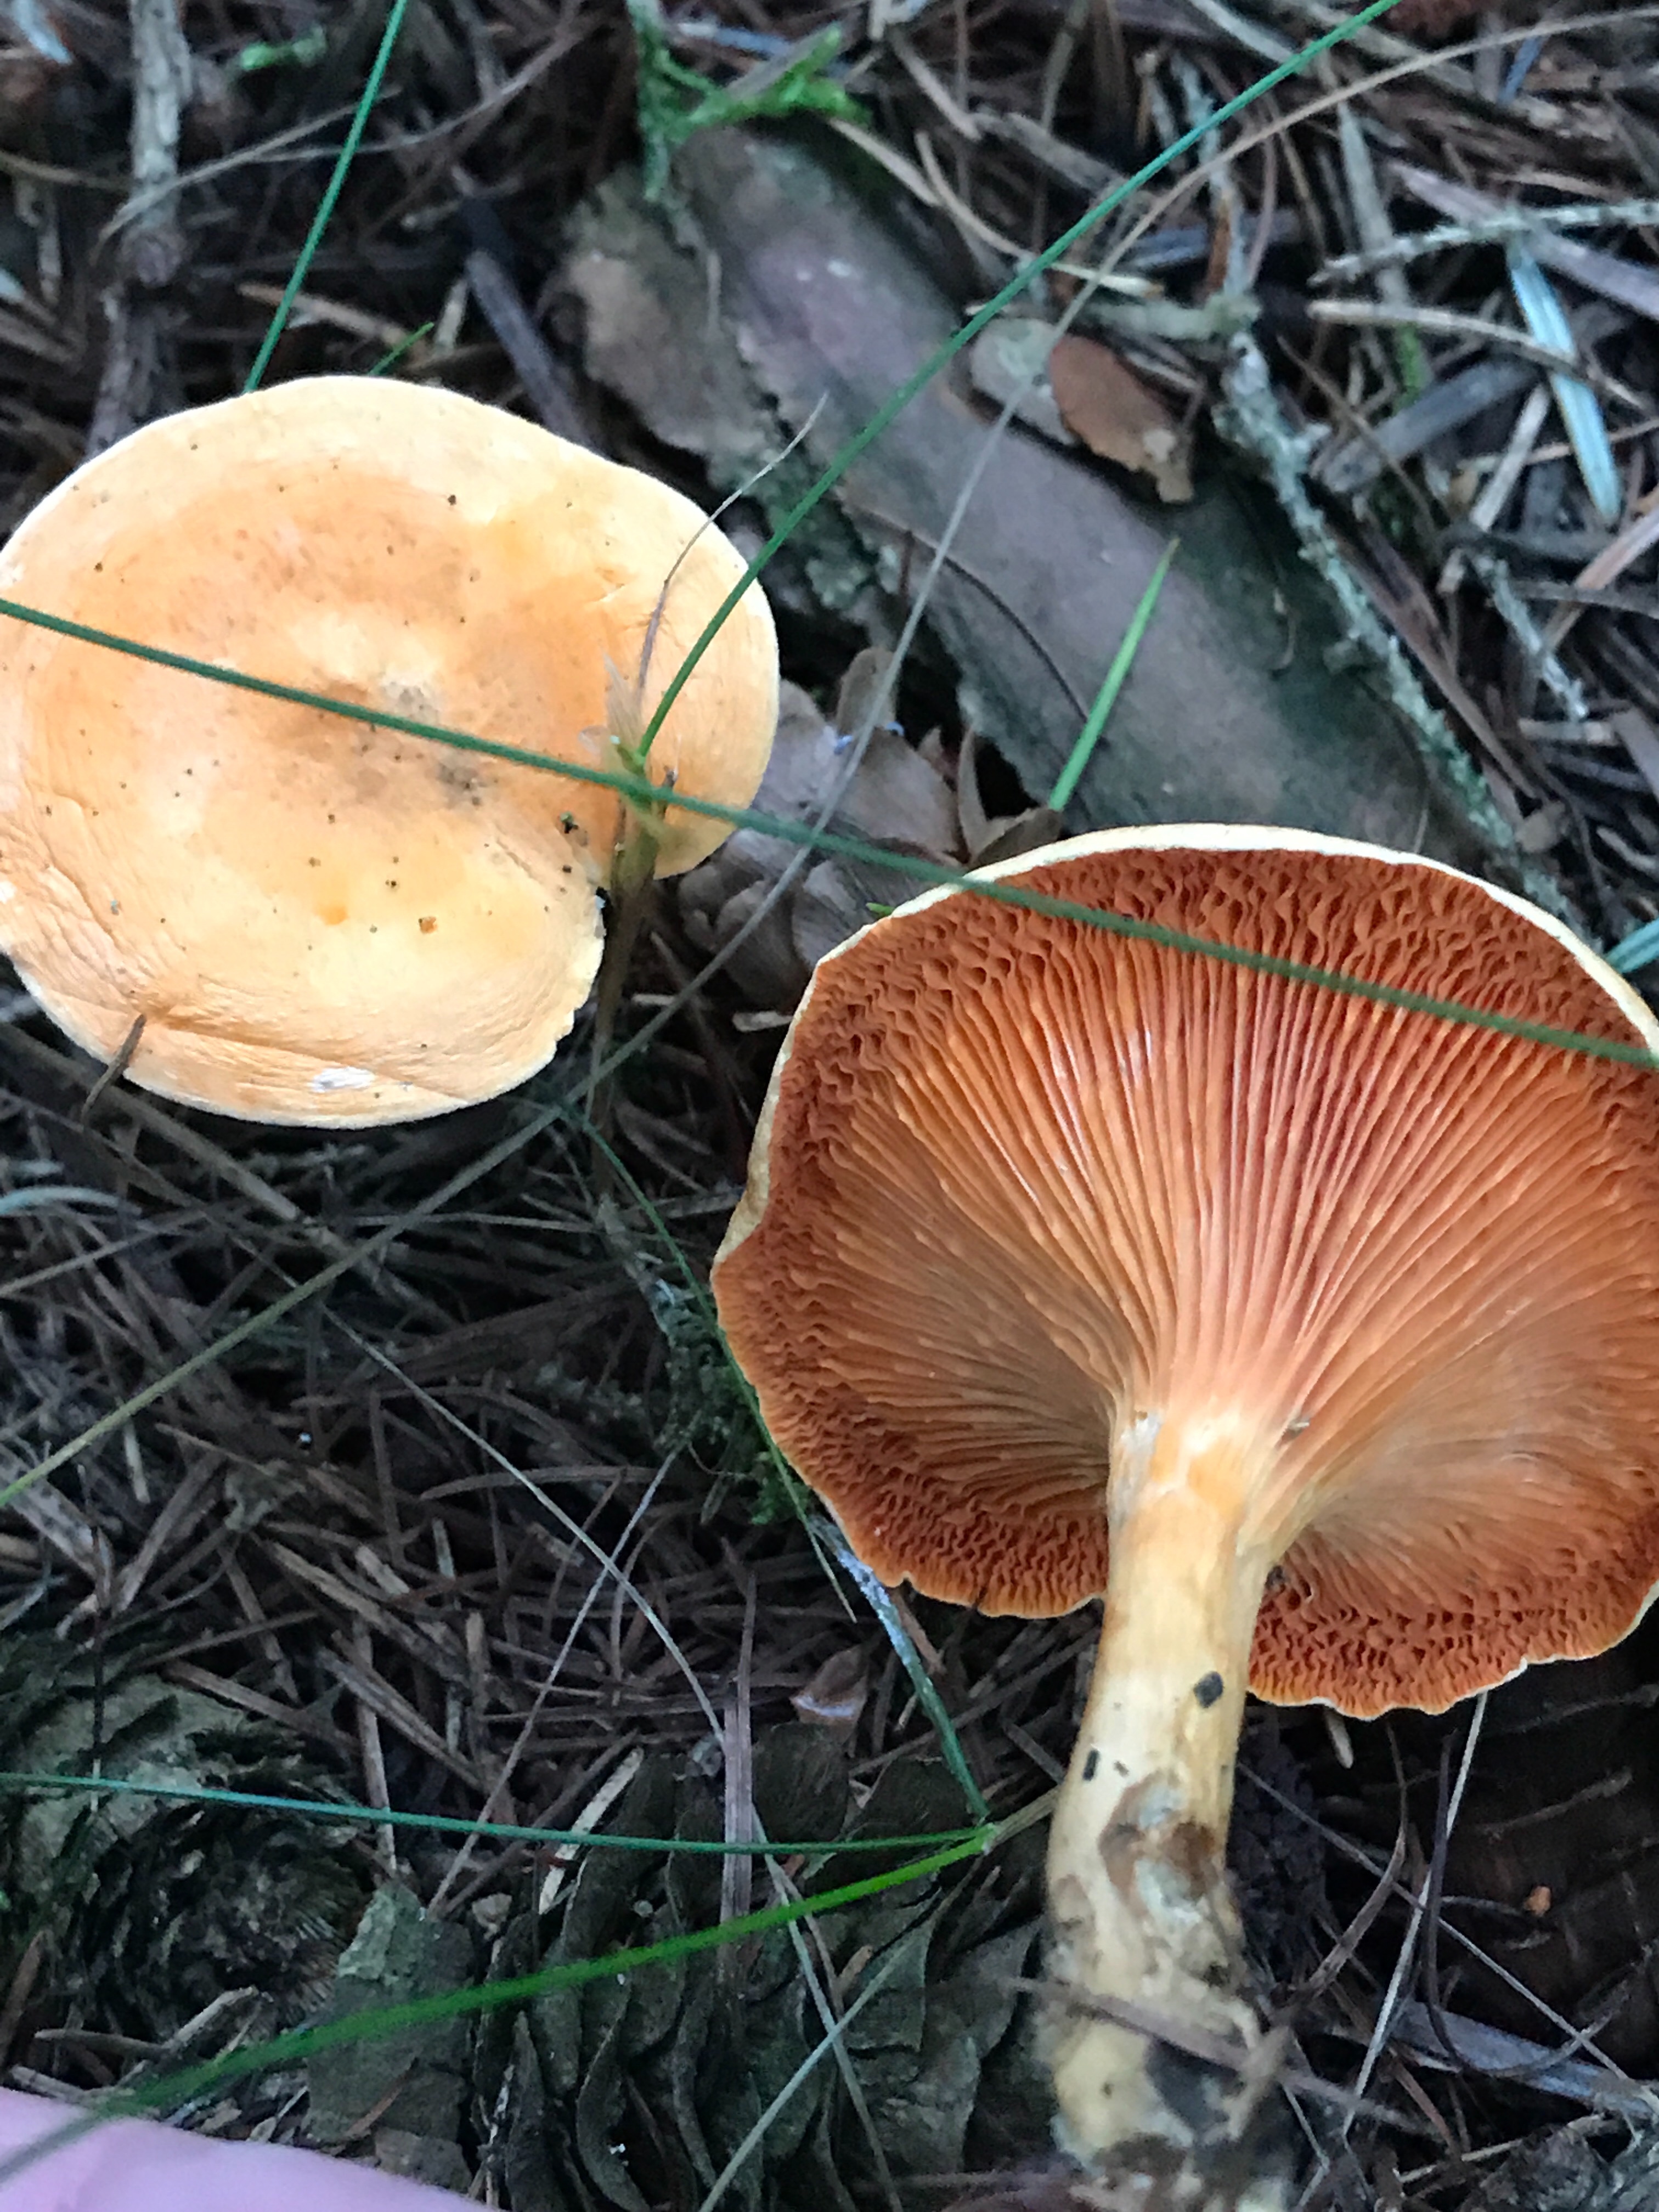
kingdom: Fungi
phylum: Basidiomycota
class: Agaricomycetes
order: Boletales
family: Hygrophoropsidaceae
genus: Hygrophoropsis
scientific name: Hygrophoropsis aurantiaca
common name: almindelig orangekantarel
